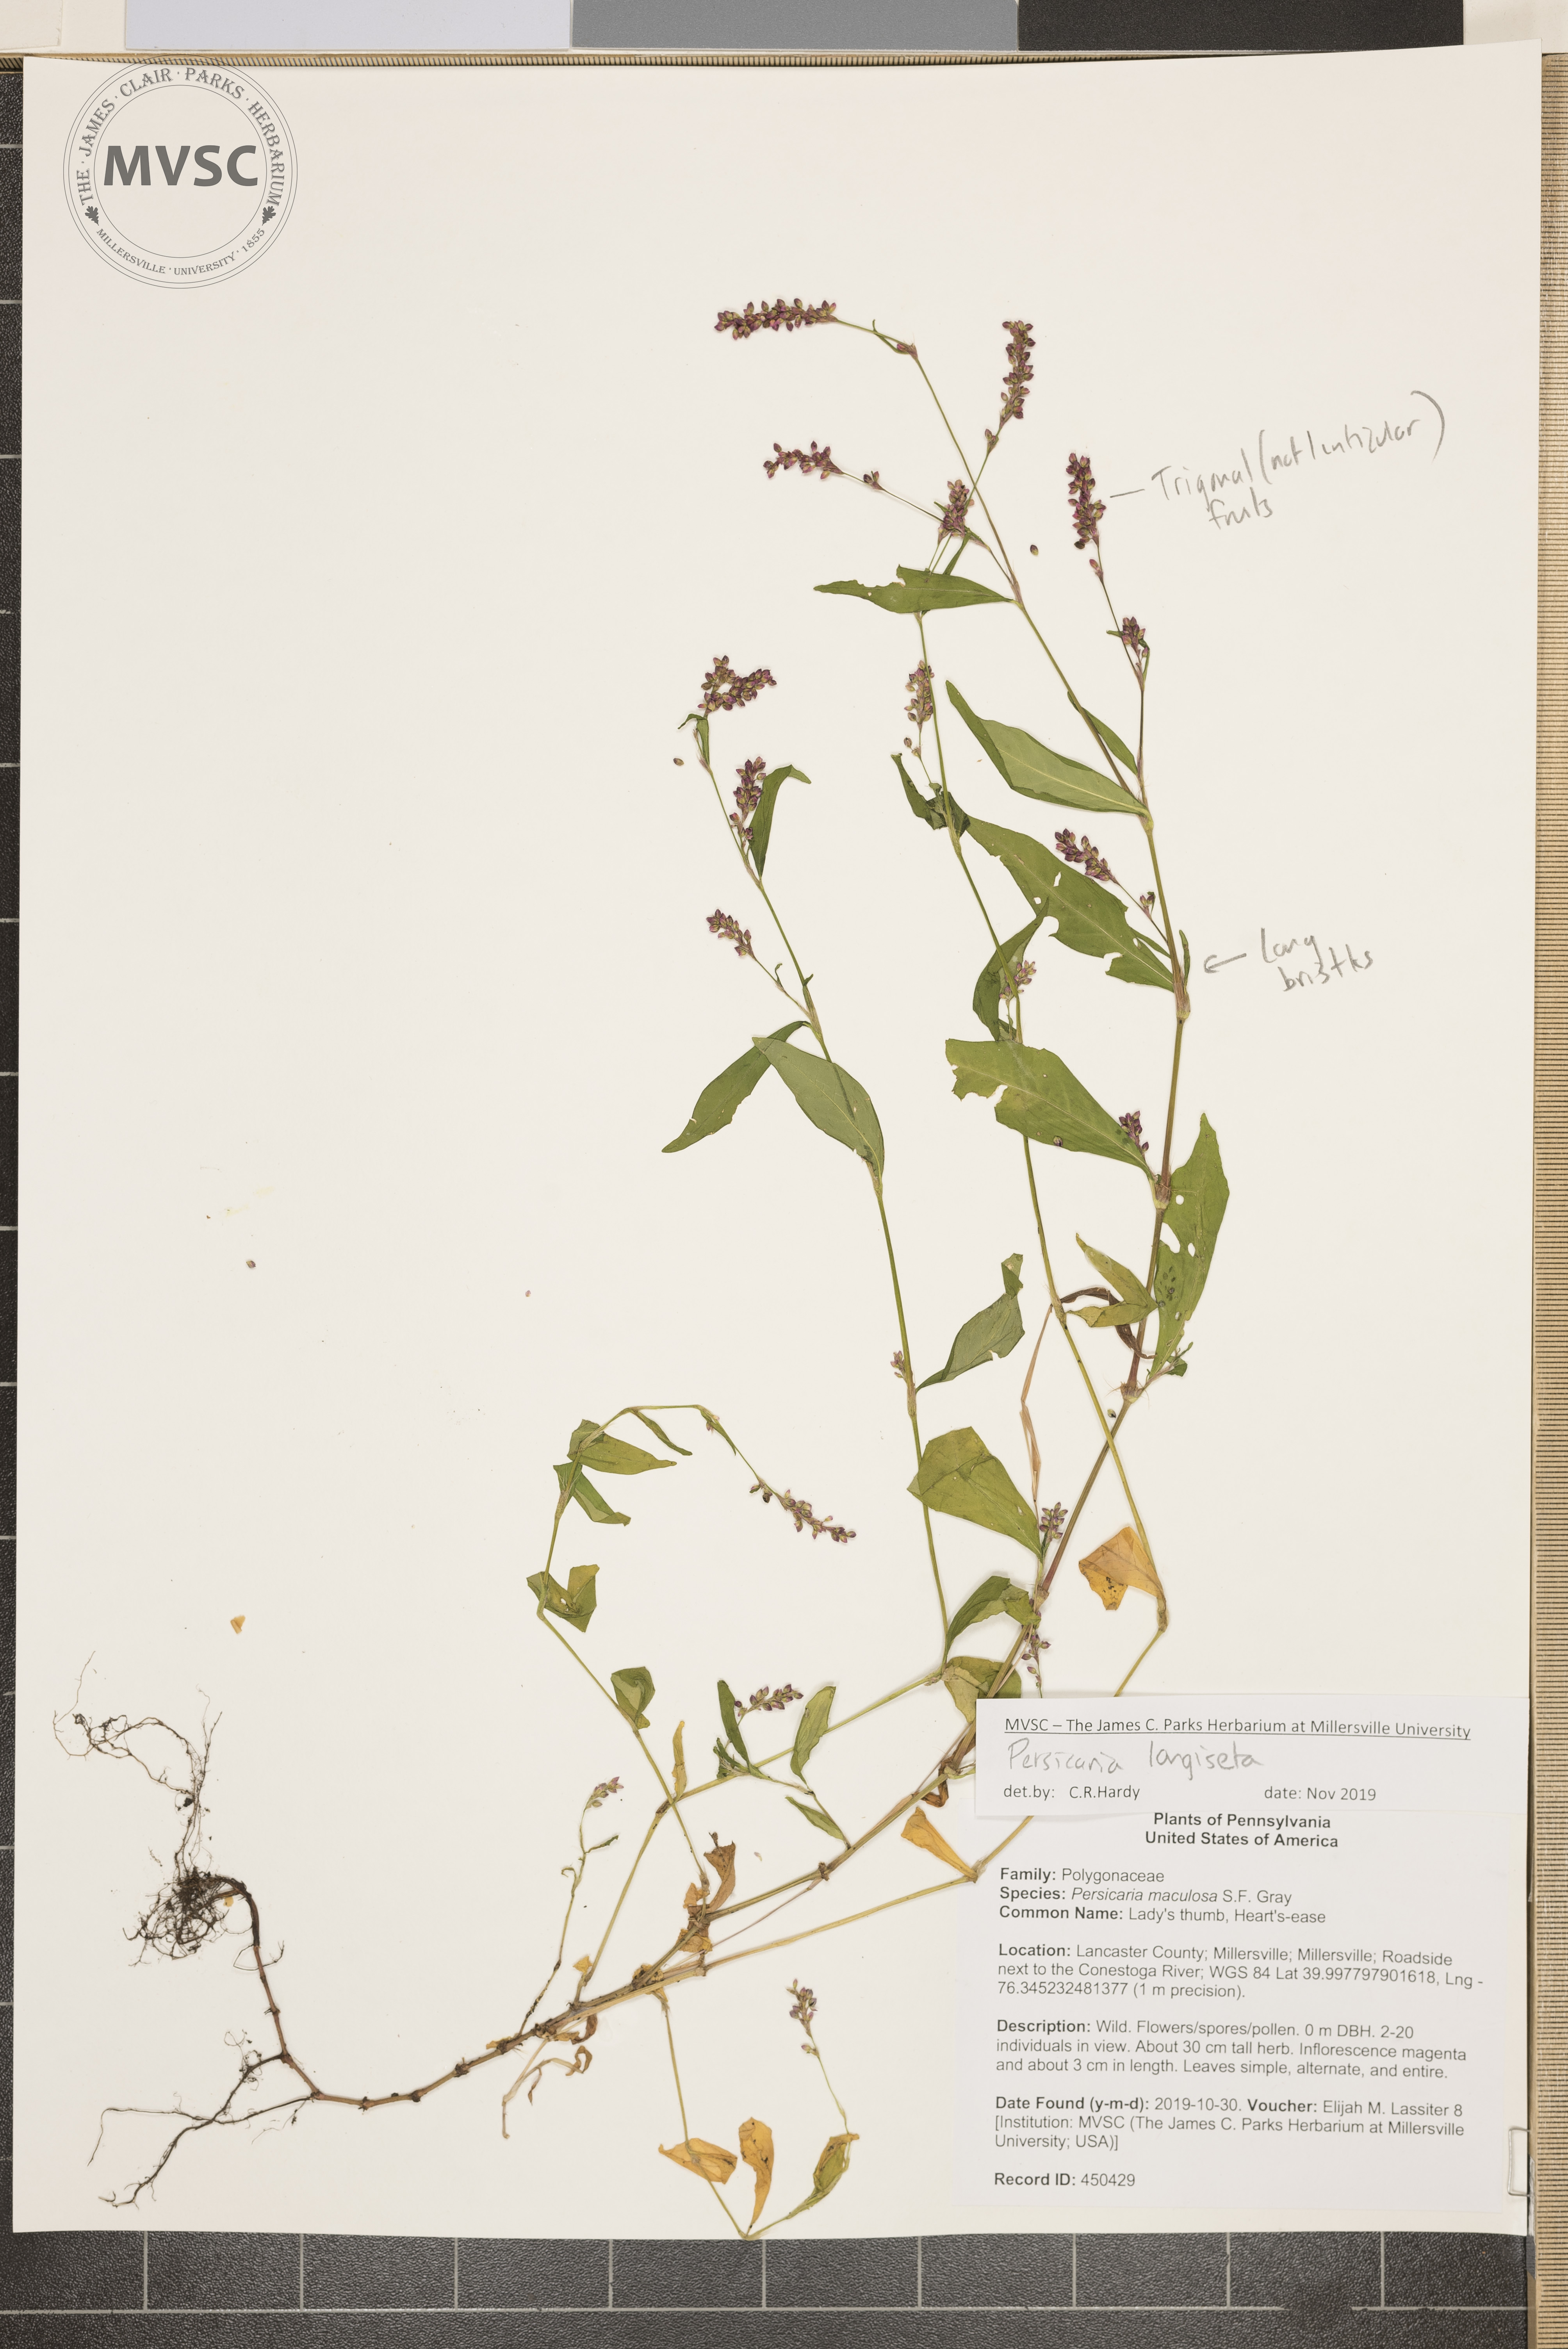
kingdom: Plantae
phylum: Tracheophyta
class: Magnoliopsida
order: Caryophyllales
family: Polygonaceae
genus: Persicaria
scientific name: Persicaria longiseta
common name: low smartweed
